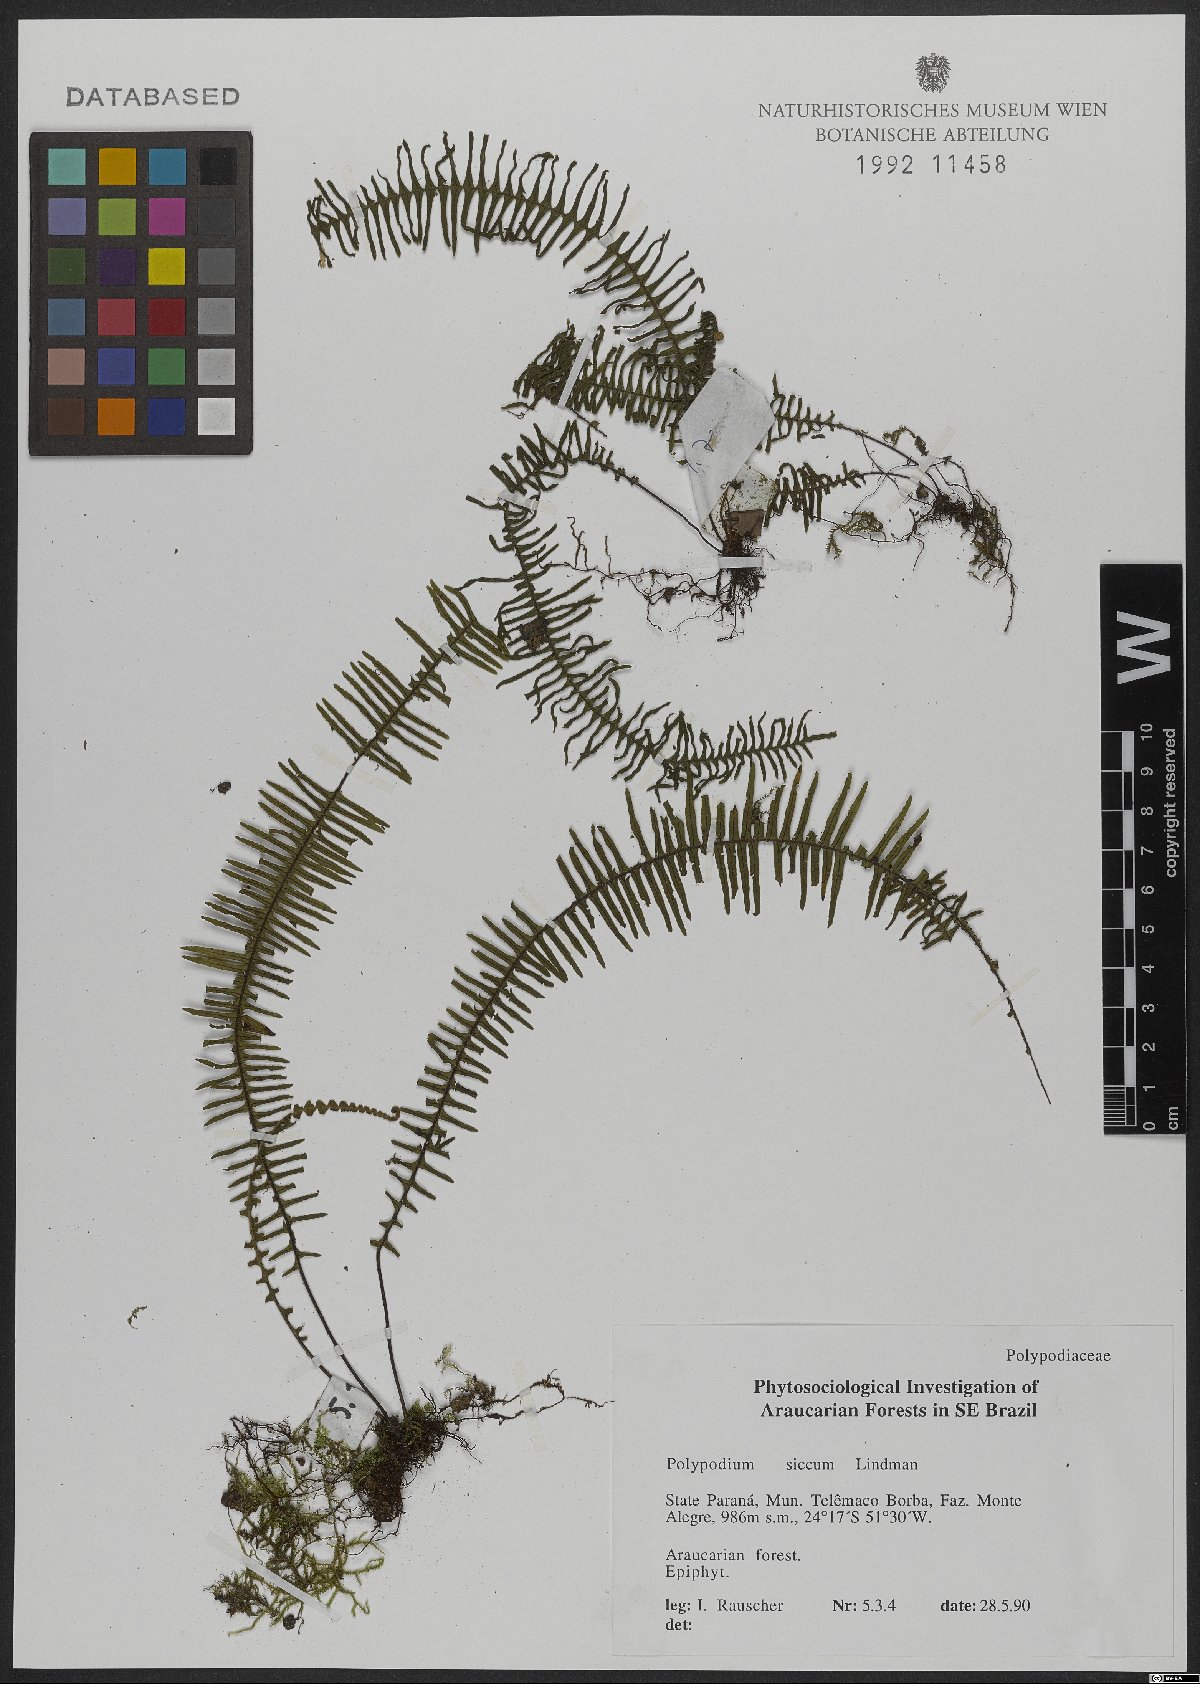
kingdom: Plantae
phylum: Tracheophyta
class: Polypodiopsida
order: Polypodiales
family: Polypodiaceae
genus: Pecluma
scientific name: Pecluma sicca
